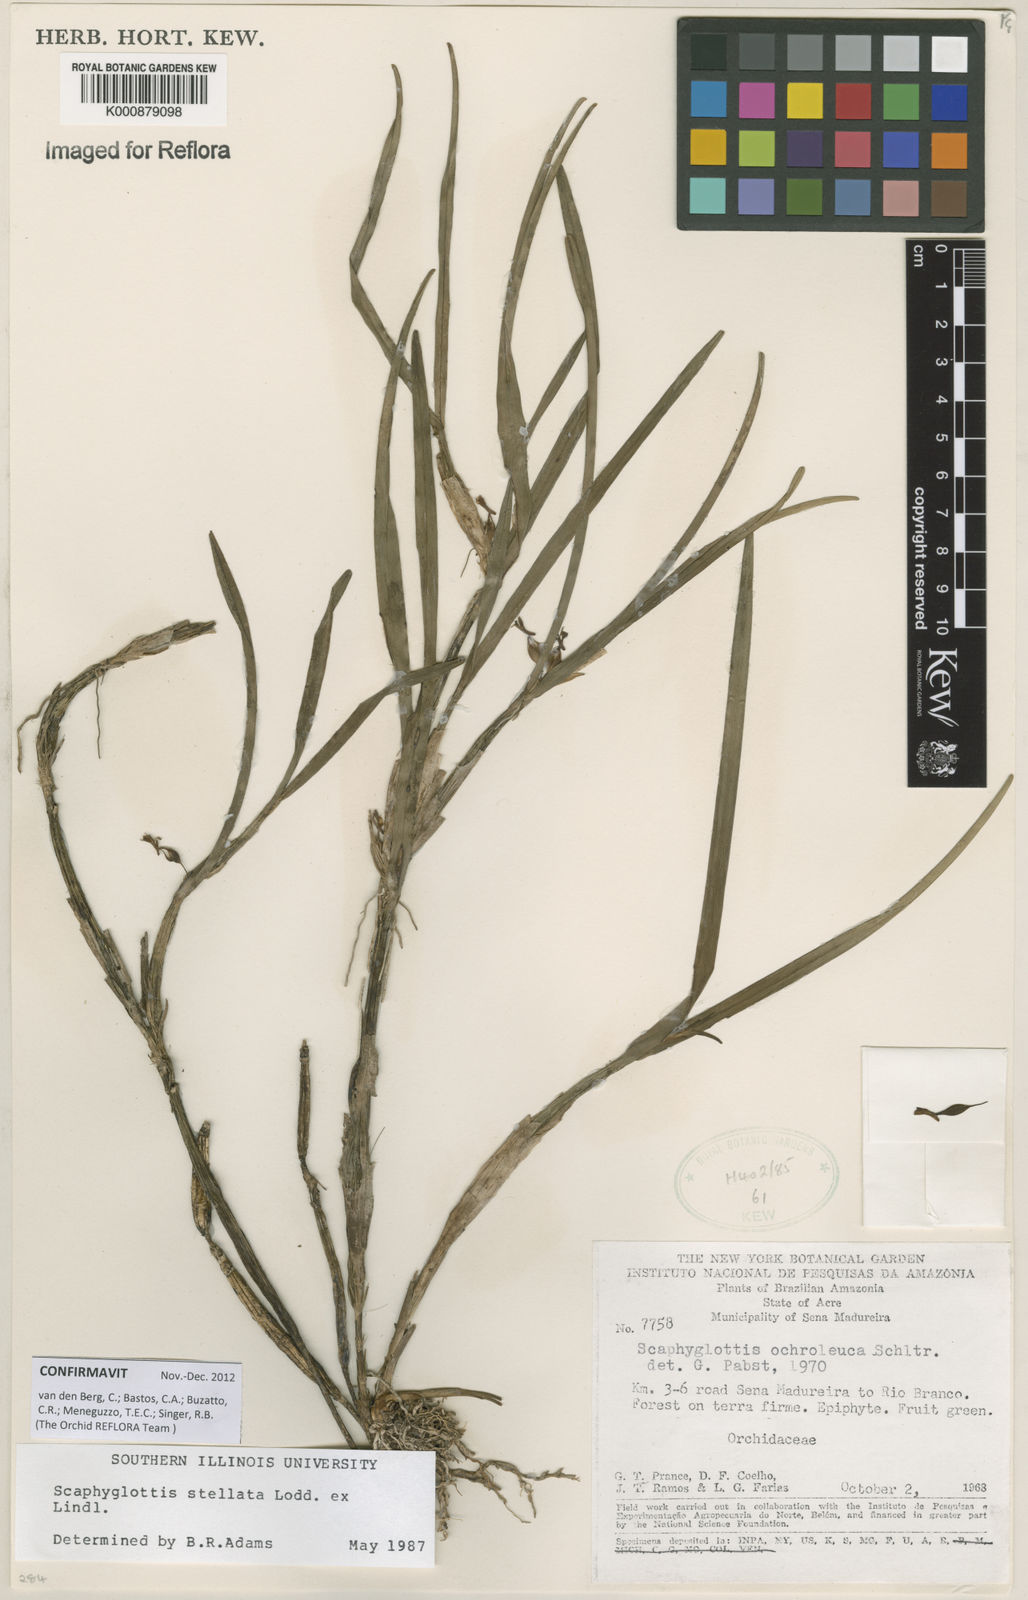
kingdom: Plantae
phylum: Tracheophyta
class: Liliopsida
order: Asparagales
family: Orchidaceae
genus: Scaphyglottis
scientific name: Scaphyglottis stellata
